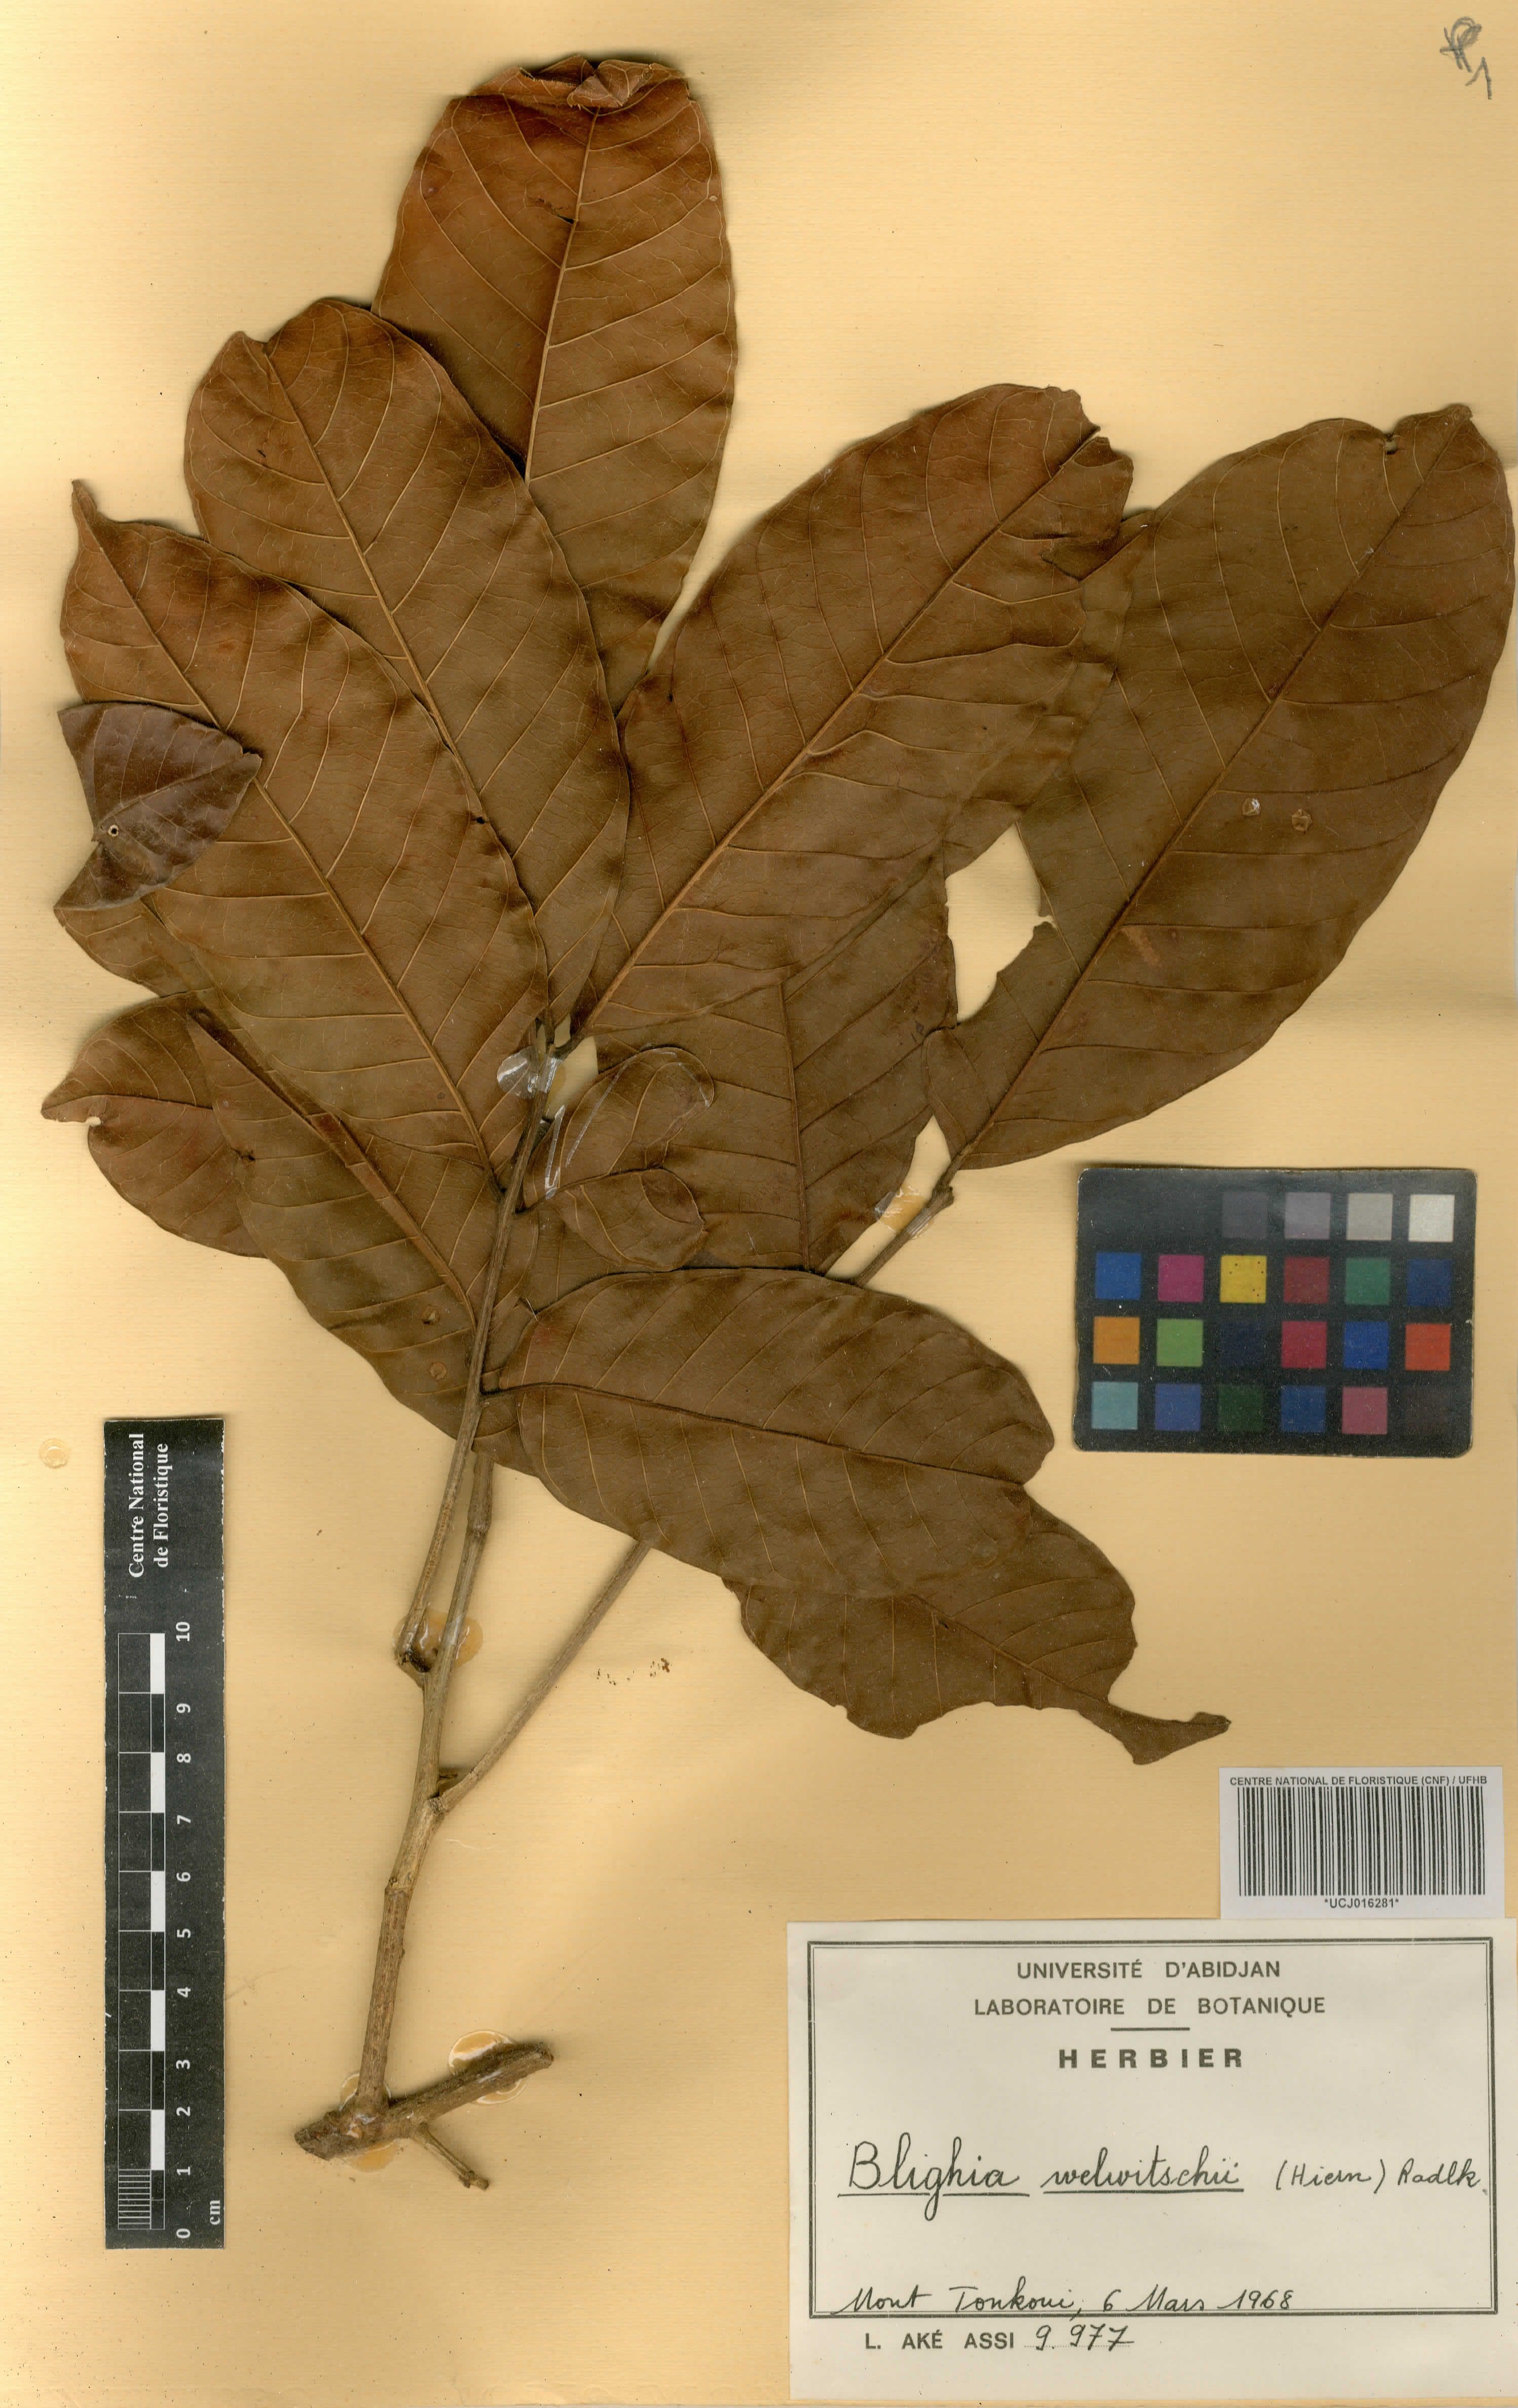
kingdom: Plantae
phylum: Tracheophyta
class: Magnoliopsida
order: Sapindales
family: Sapindaceae
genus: Blighia
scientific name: Blighia welwitschii
